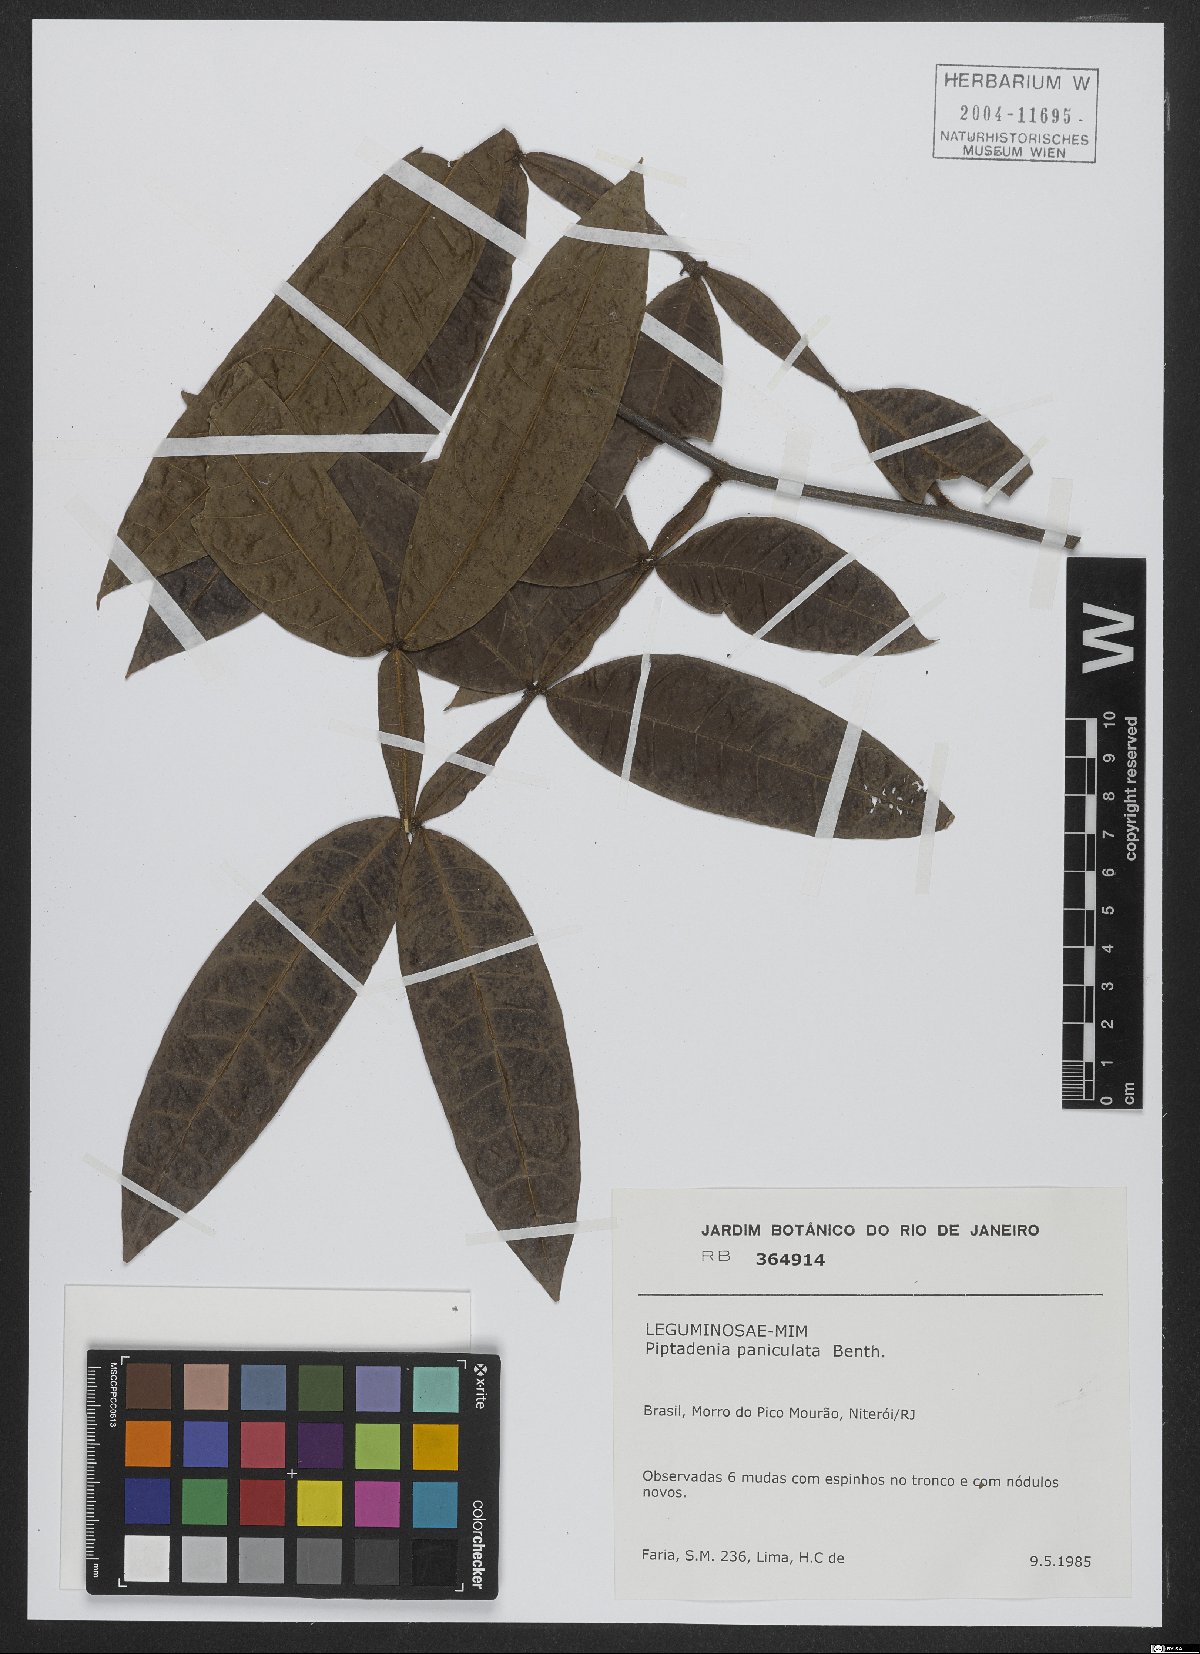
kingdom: Plantae
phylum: Tracheophyta
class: Magnoliopsida
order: Fabales
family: Fabaceae
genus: Piptadenia
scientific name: Piptadenia paniculata
